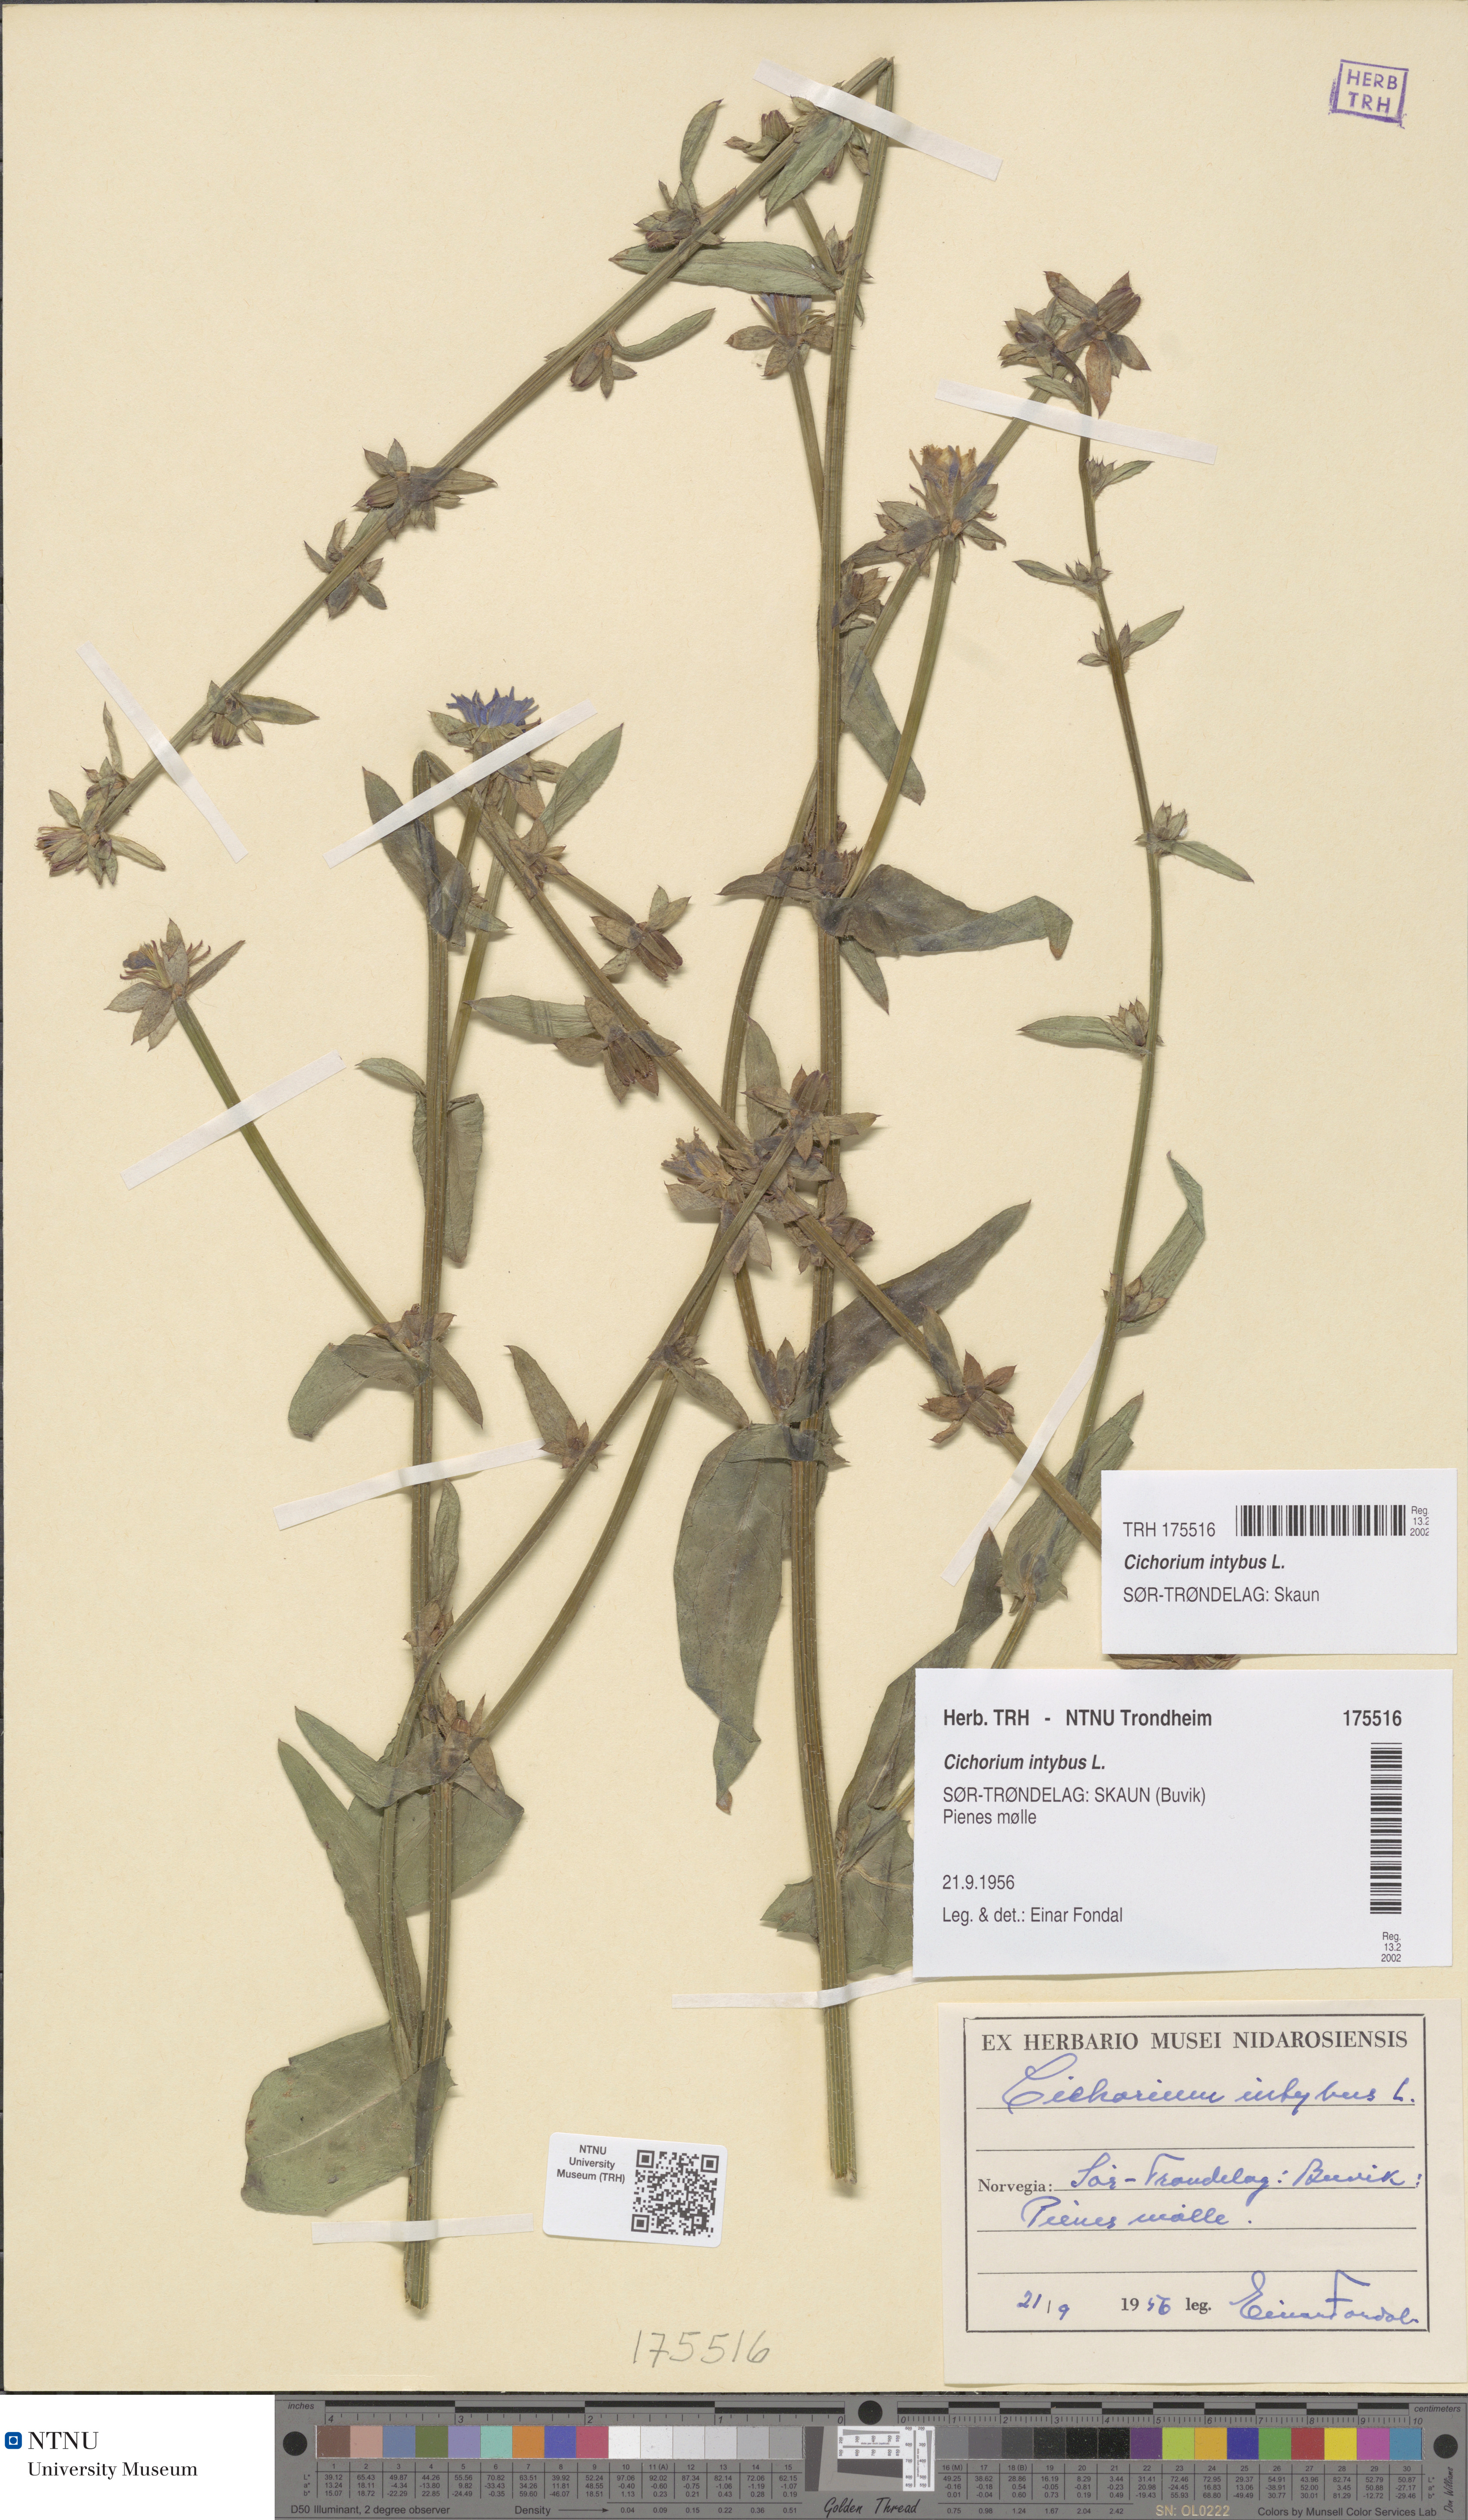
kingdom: Plantae
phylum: Tracheophyta
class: Magnoliopsida
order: Asterales
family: Asteraceae
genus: Cichorium
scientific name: Cichorium intybus
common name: Chicory
